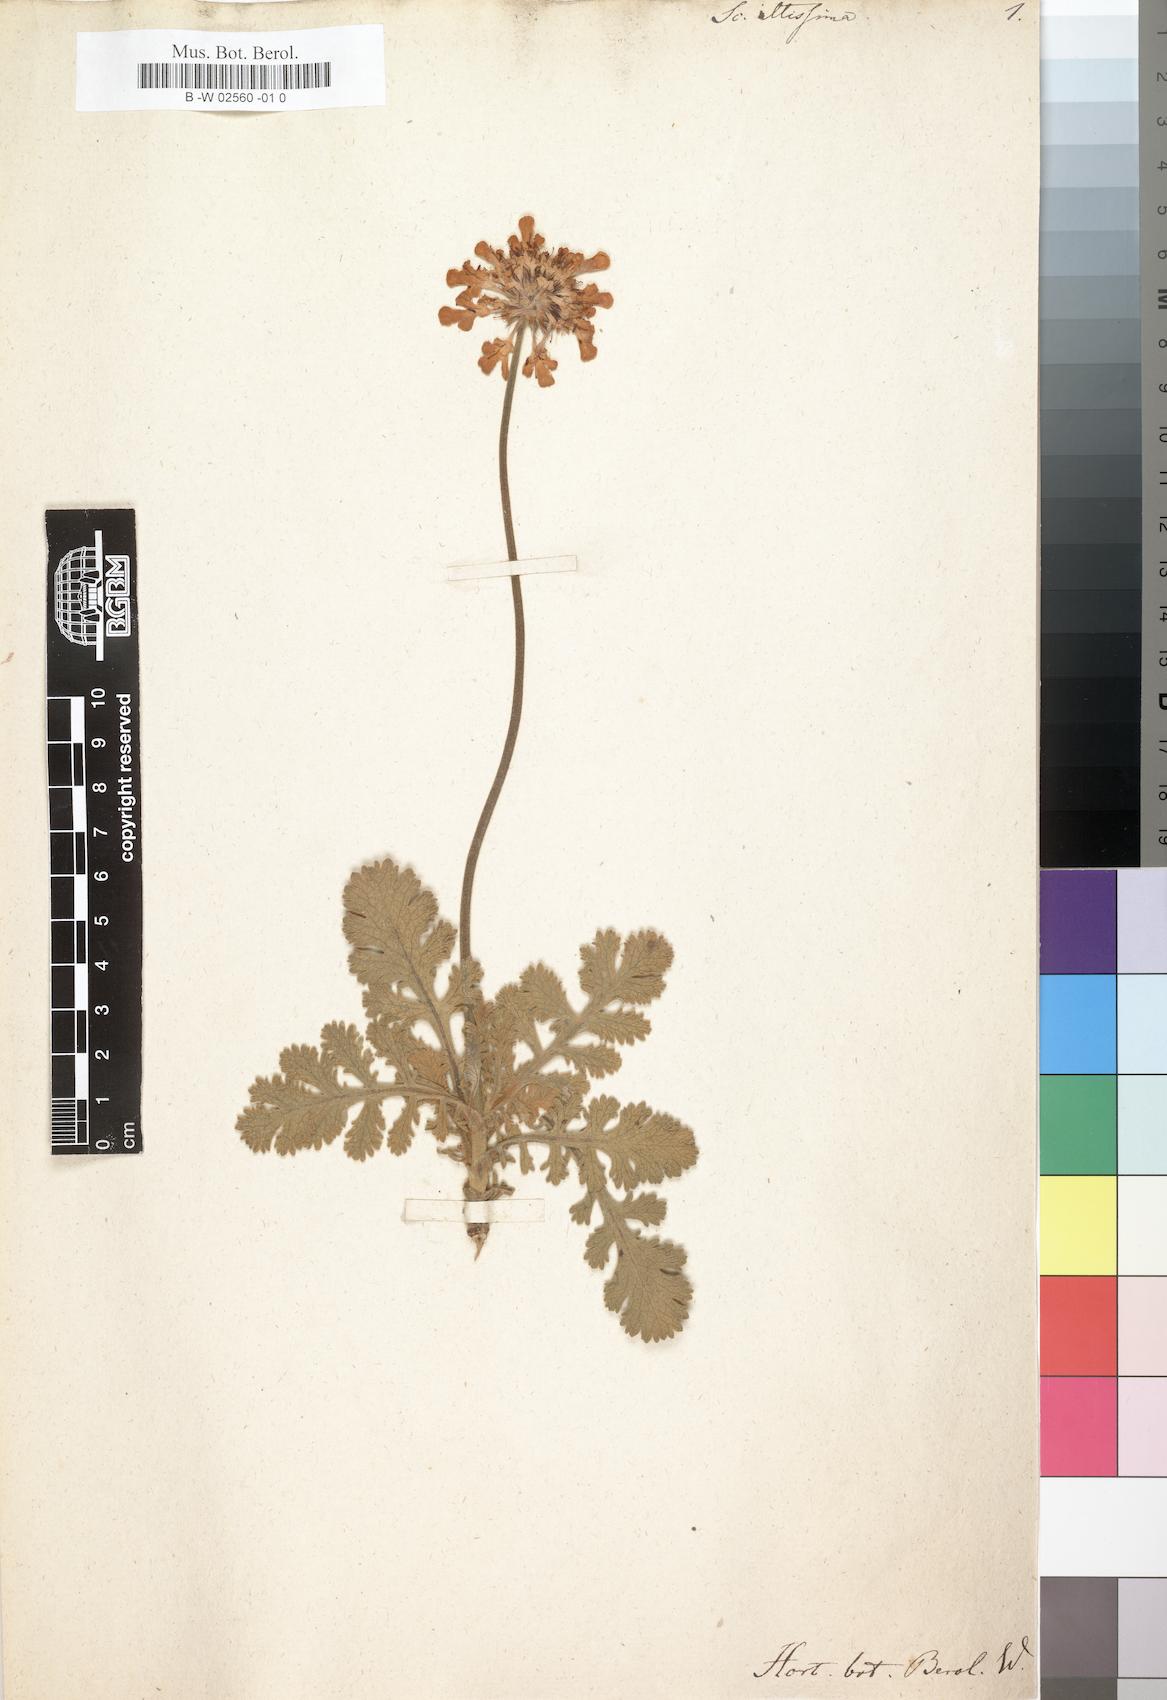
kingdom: Plantae
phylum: Tracheophyta
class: Magnoliopsida
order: Dipsacales
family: Caprifoliaceae
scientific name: Caprifoliaceae
